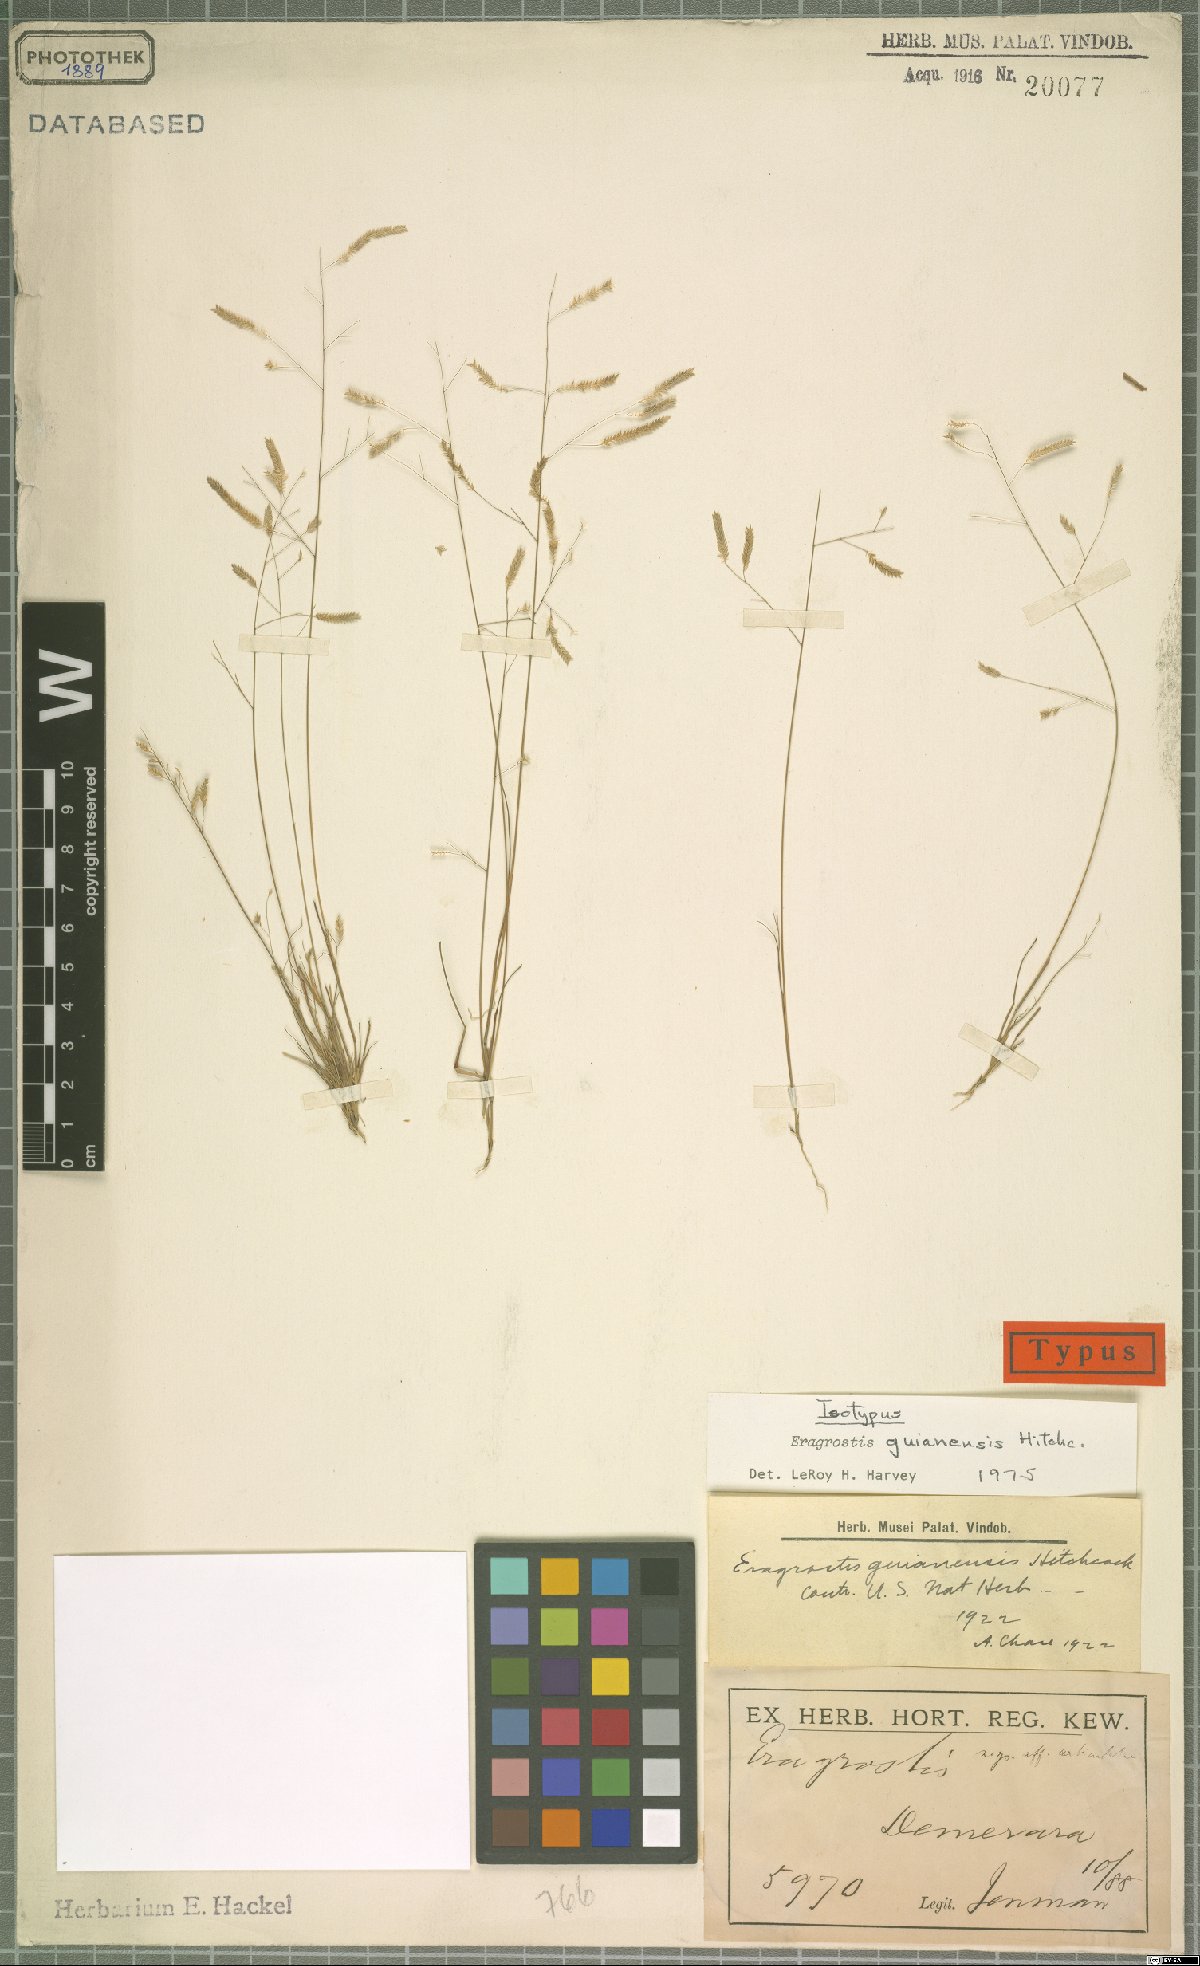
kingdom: Plantae
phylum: Tracheophyta
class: Liliopsida
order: Poales
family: Poaceae
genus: Eragrostis
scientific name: Eragrostis guianensis
